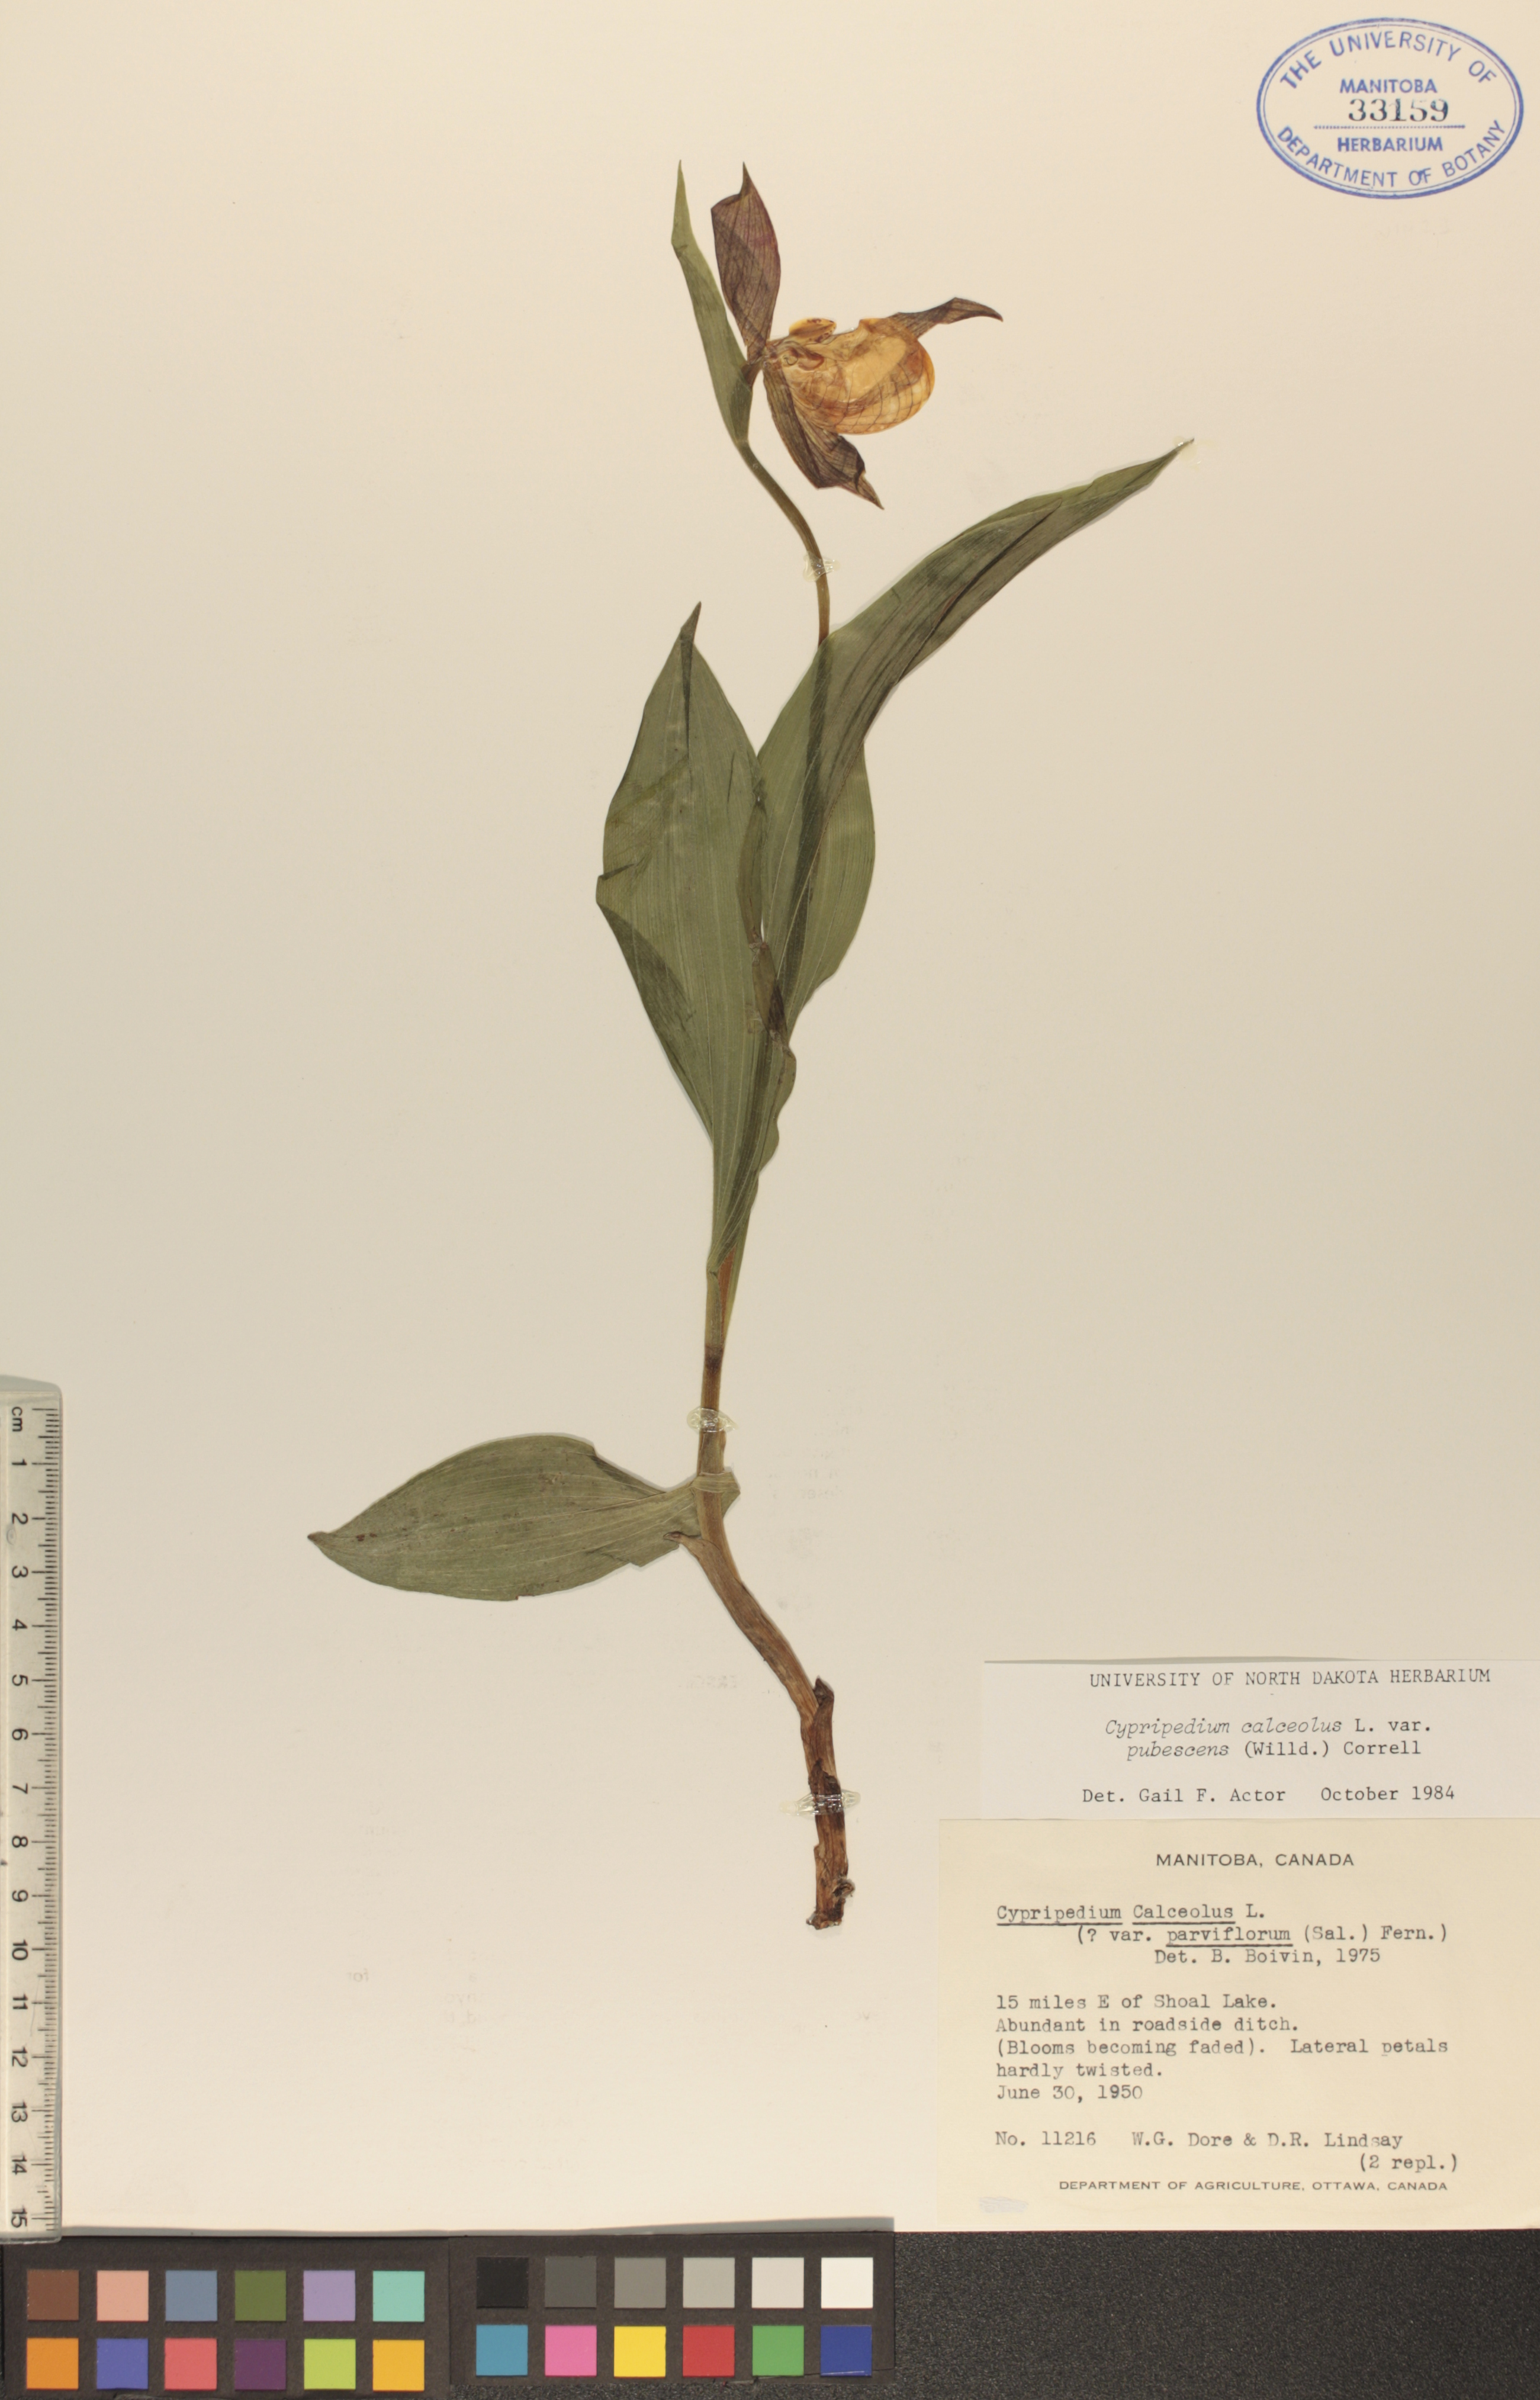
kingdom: Plantae
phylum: Tracheophyta
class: Liliopsida
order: Asparagales
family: Orchidaceae
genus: Cypripedium
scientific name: Cypripedium parviflorum
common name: American yellow lady's-slipper
